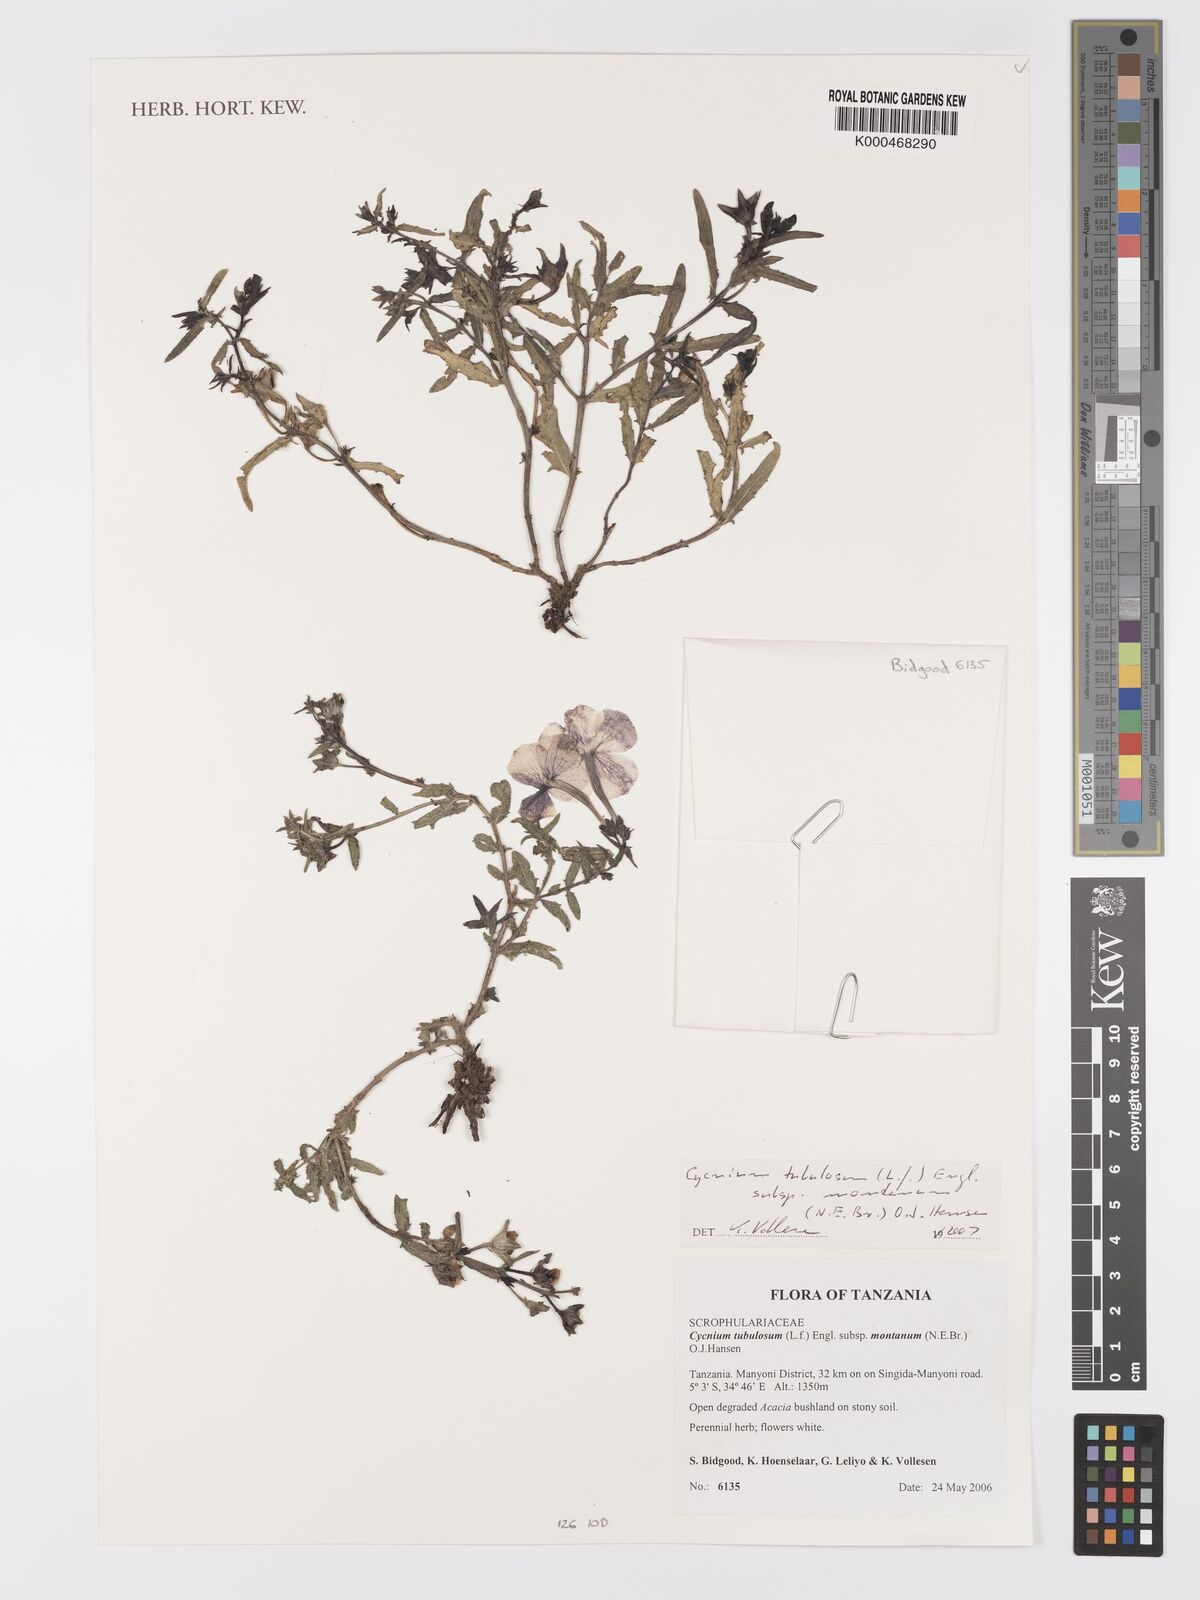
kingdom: Plantae
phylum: Tracheophyta
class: Magnoliopsida
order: Lamiales
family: Orobanchaceae
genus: Cycnium
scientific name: Cycnium tubulosum
